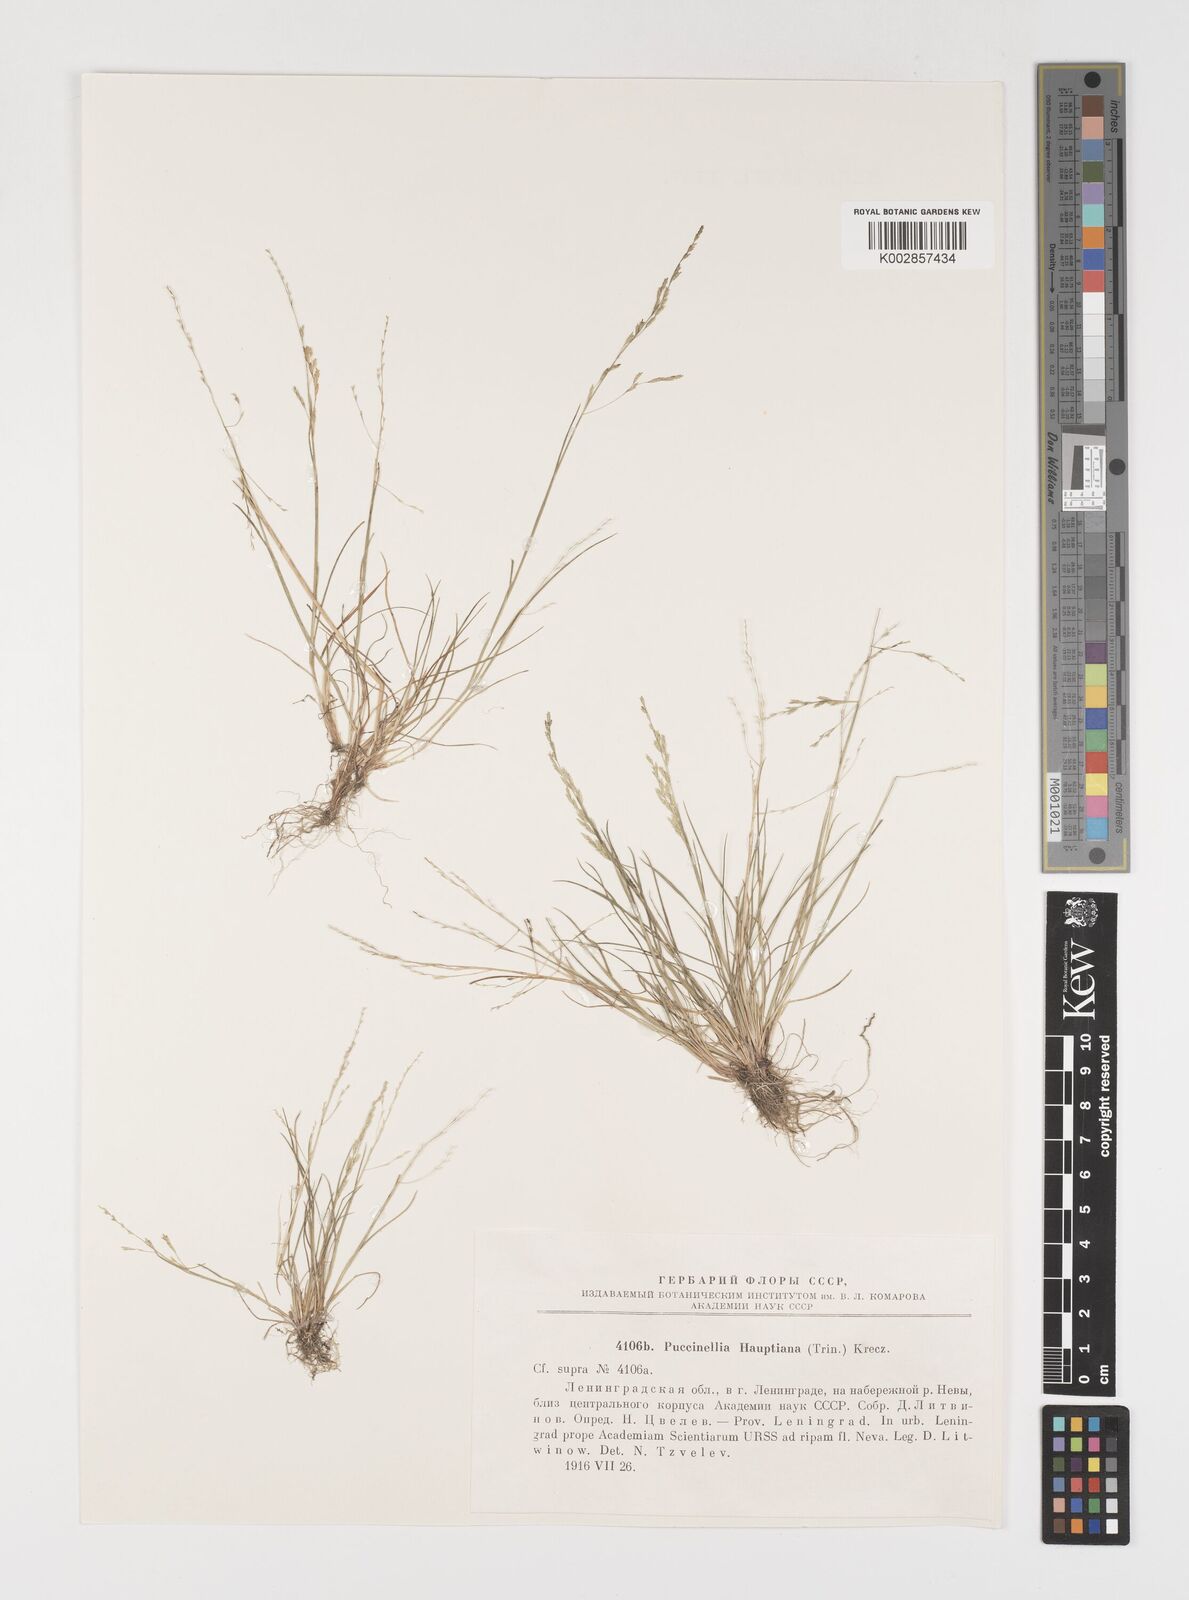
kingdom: Plantae
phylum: Tracheophyta
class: Liliopsida
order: Poales
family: Poaceae
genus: Puccinellia
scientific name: Puccinellia distans
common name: Weeping alkaligrass
